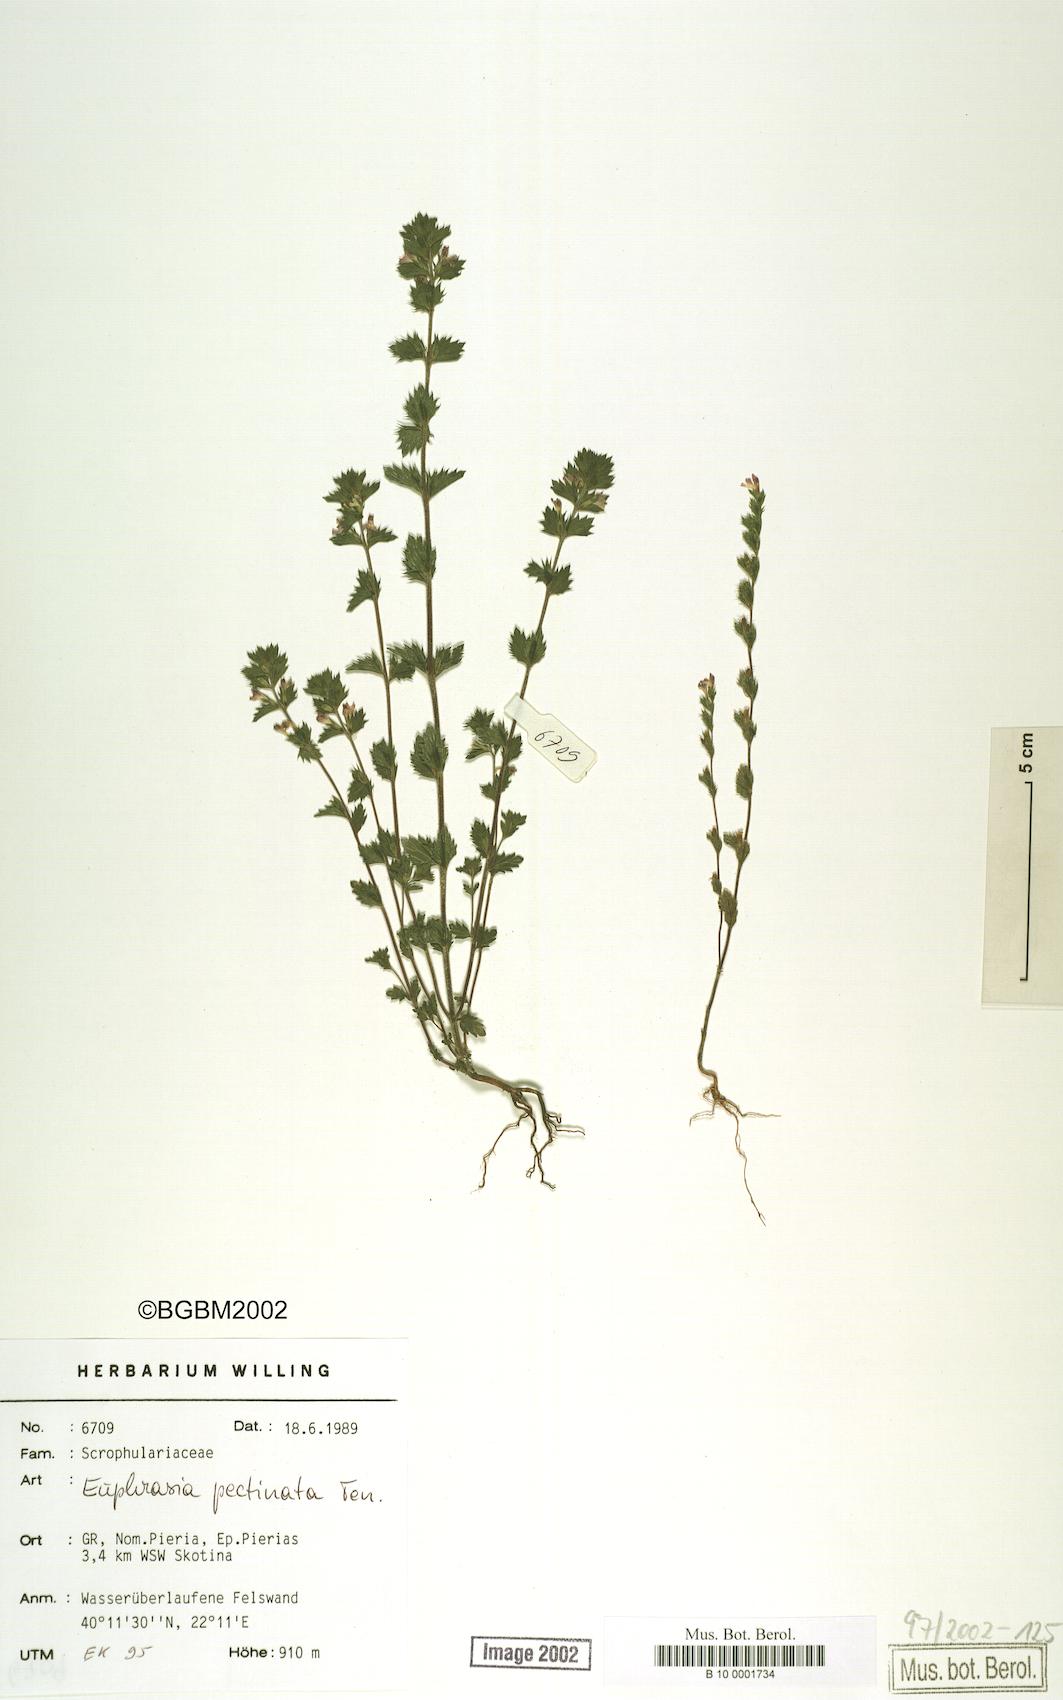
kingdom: Plantae
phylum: Tracheophyta
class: Magnoliopsida
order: Lamiales
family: Orobanchaceae
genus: Euphrasia
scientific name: Euphrasia pectinata
